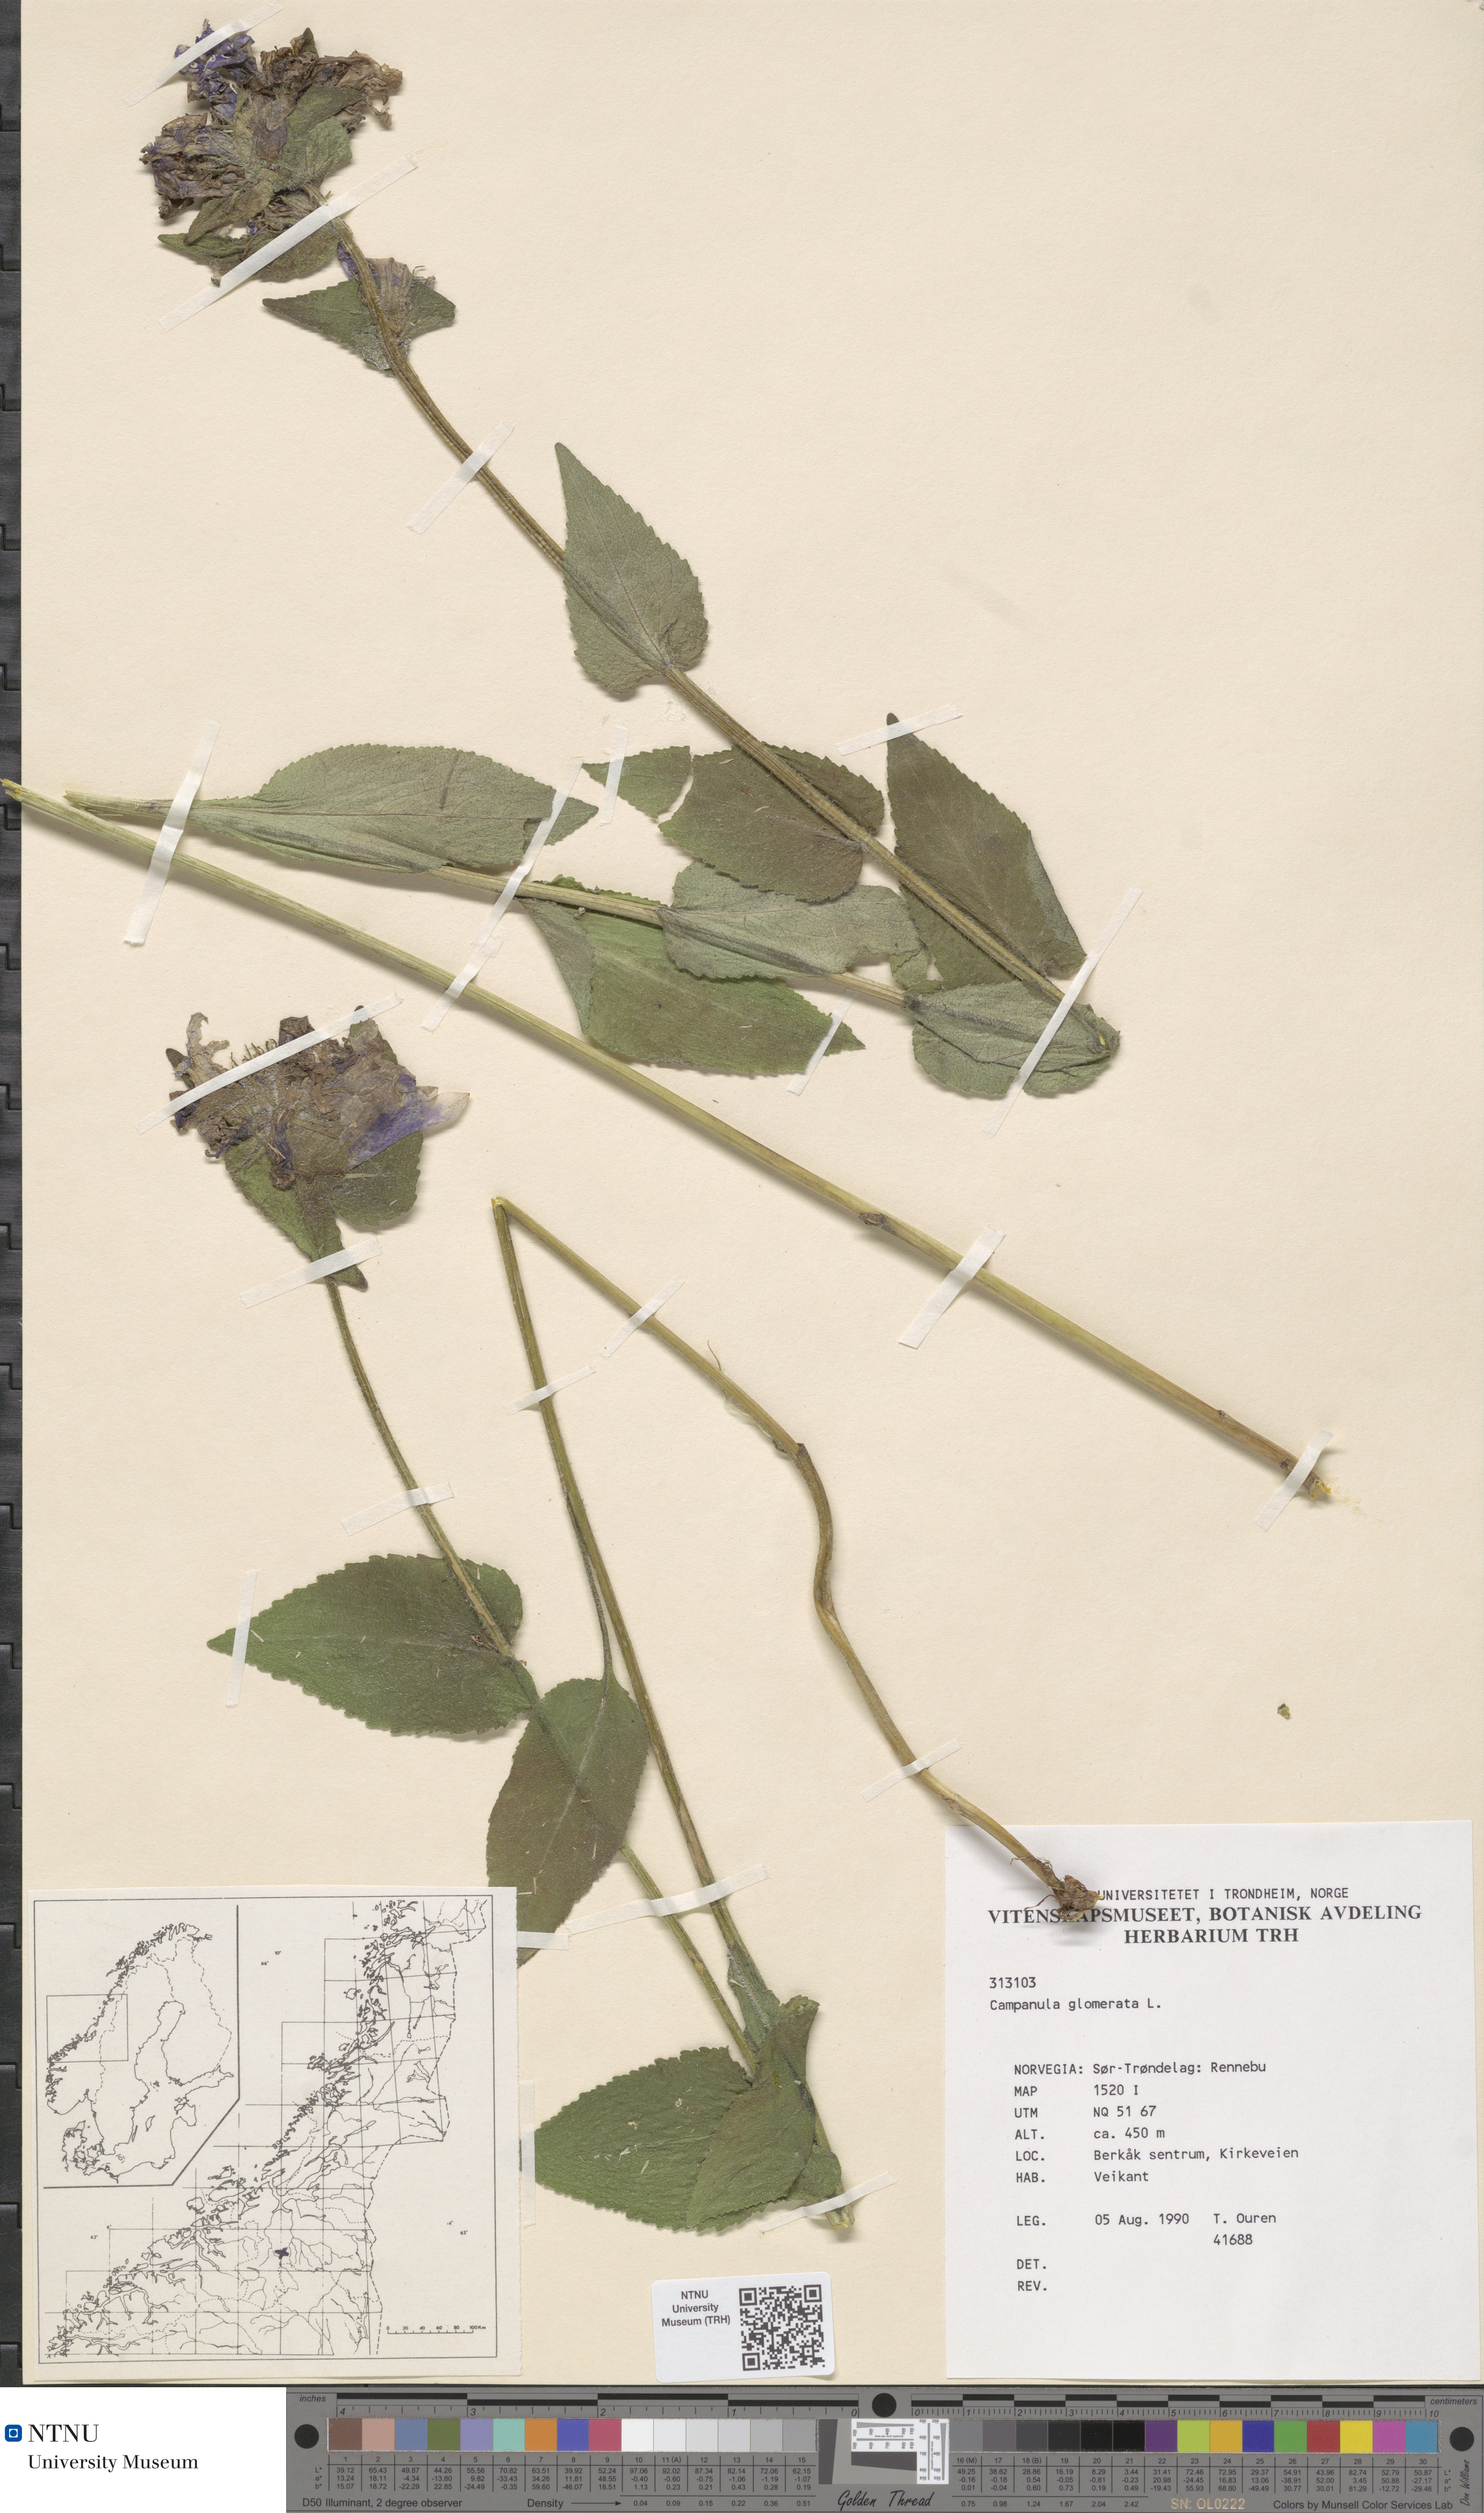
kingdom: Plantae
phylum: Tracheophyta
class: Magnoliopsida
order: Asterales
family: Campanulaceae
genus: Campanula
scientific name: Campanula glomerata
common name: Clustered bellflower
